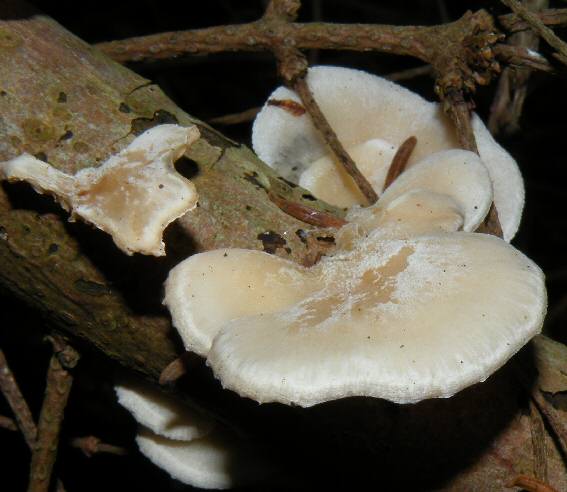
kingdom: Fungi
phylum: Basidiomycota
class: Agaricomycetes
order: Agaricales
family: Mycenaceae
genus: Panellus
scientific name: Panellus mitis
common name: mild epaulethat
